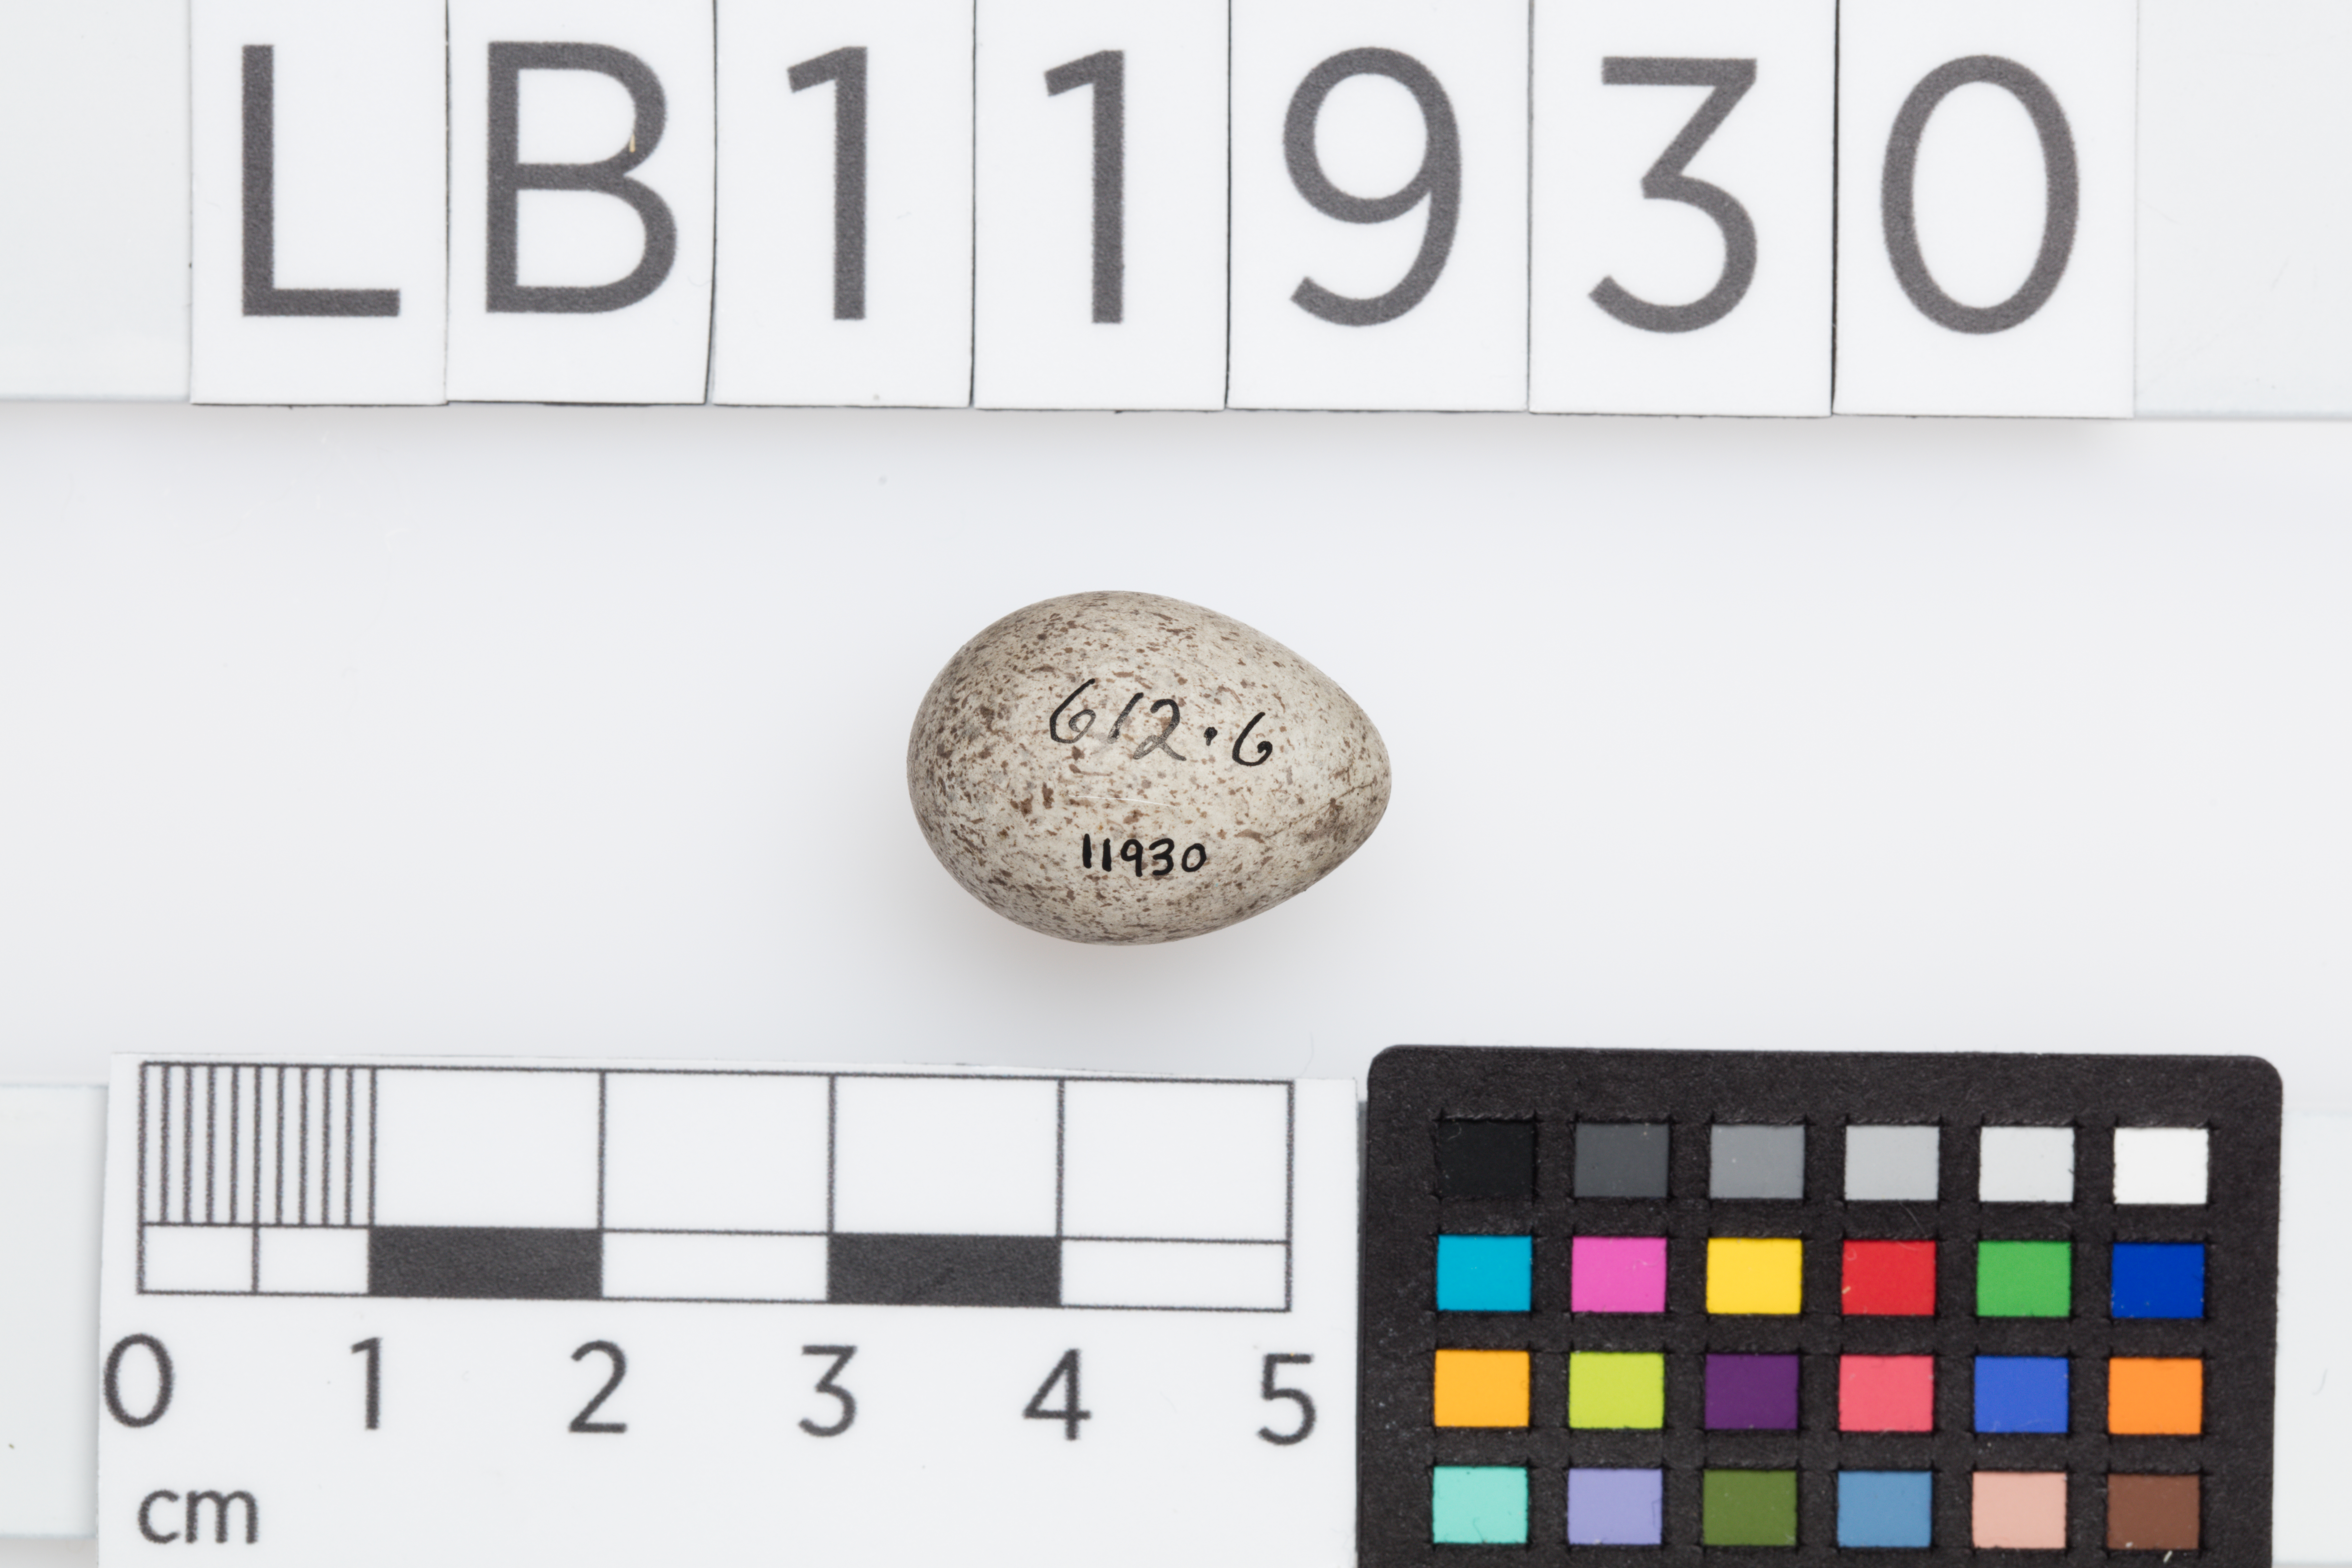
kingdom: Animalia
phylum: Chordata
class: Aves
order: Passeriformes
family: Motacillidae
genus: Motacilla
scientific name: Motacilla alba
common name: White wagtail
